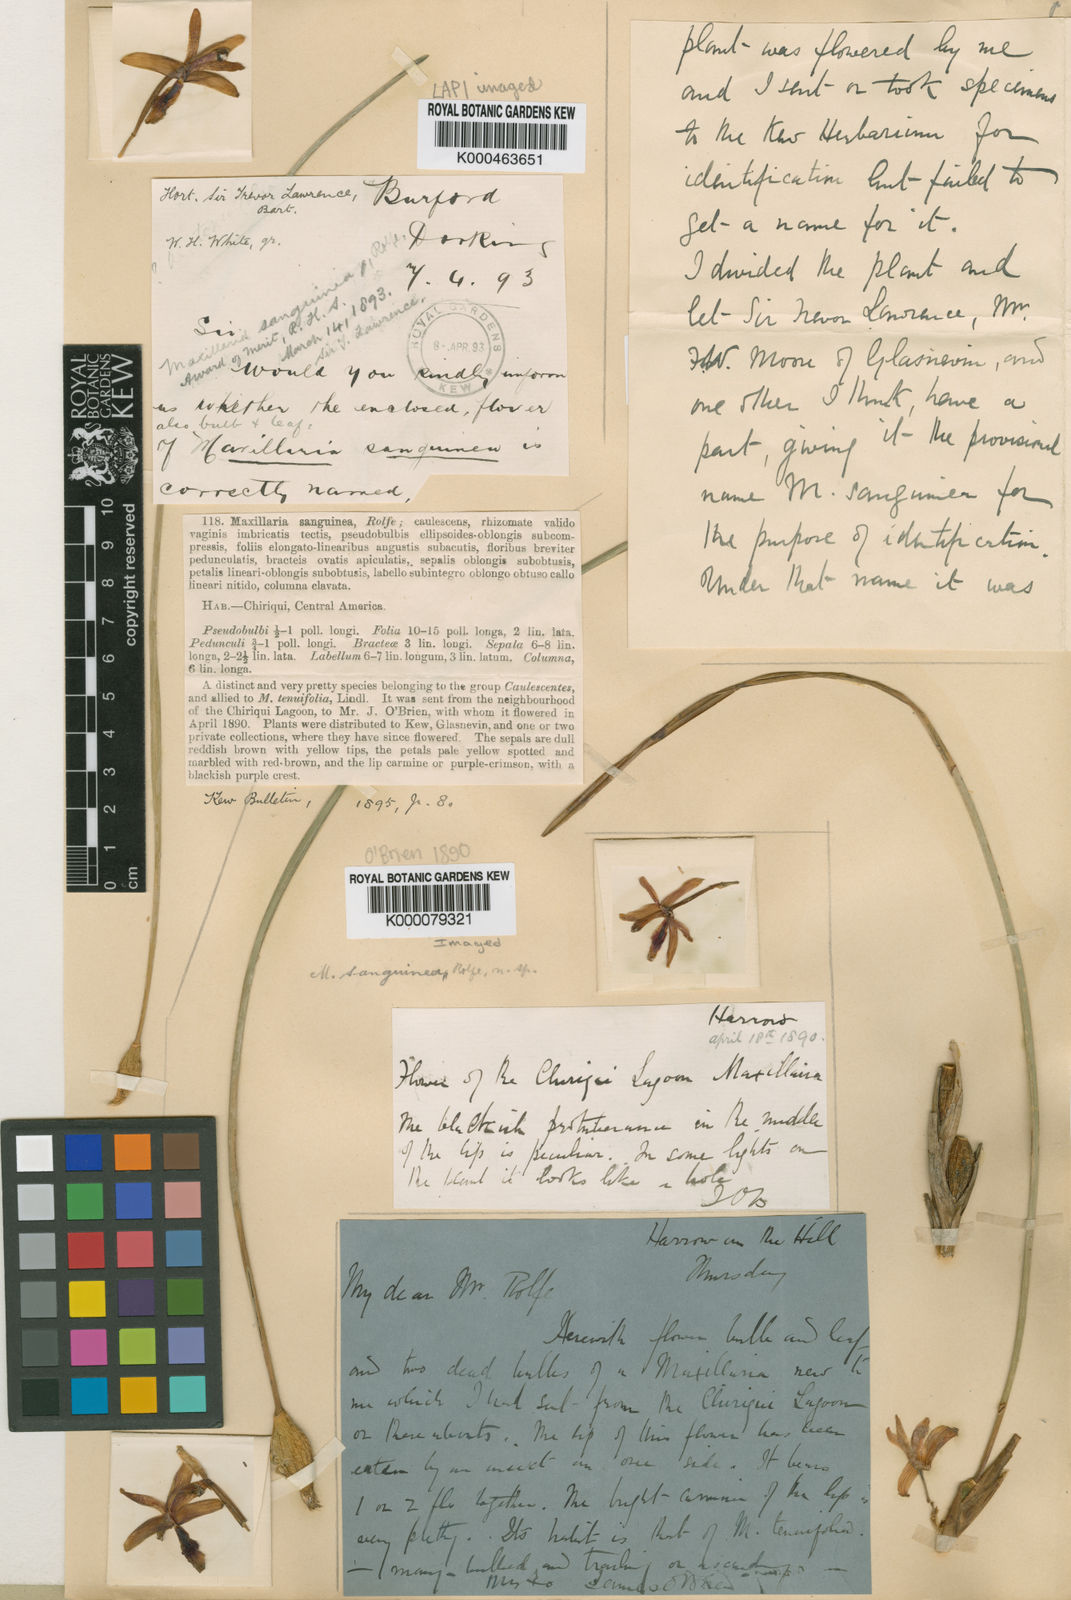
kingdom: Plantae
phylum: Tracheophyta
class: Liliopsida
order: Asparagales
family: Orchidaceae
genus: Maxillaria
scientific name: Maxillaria sanguinea
